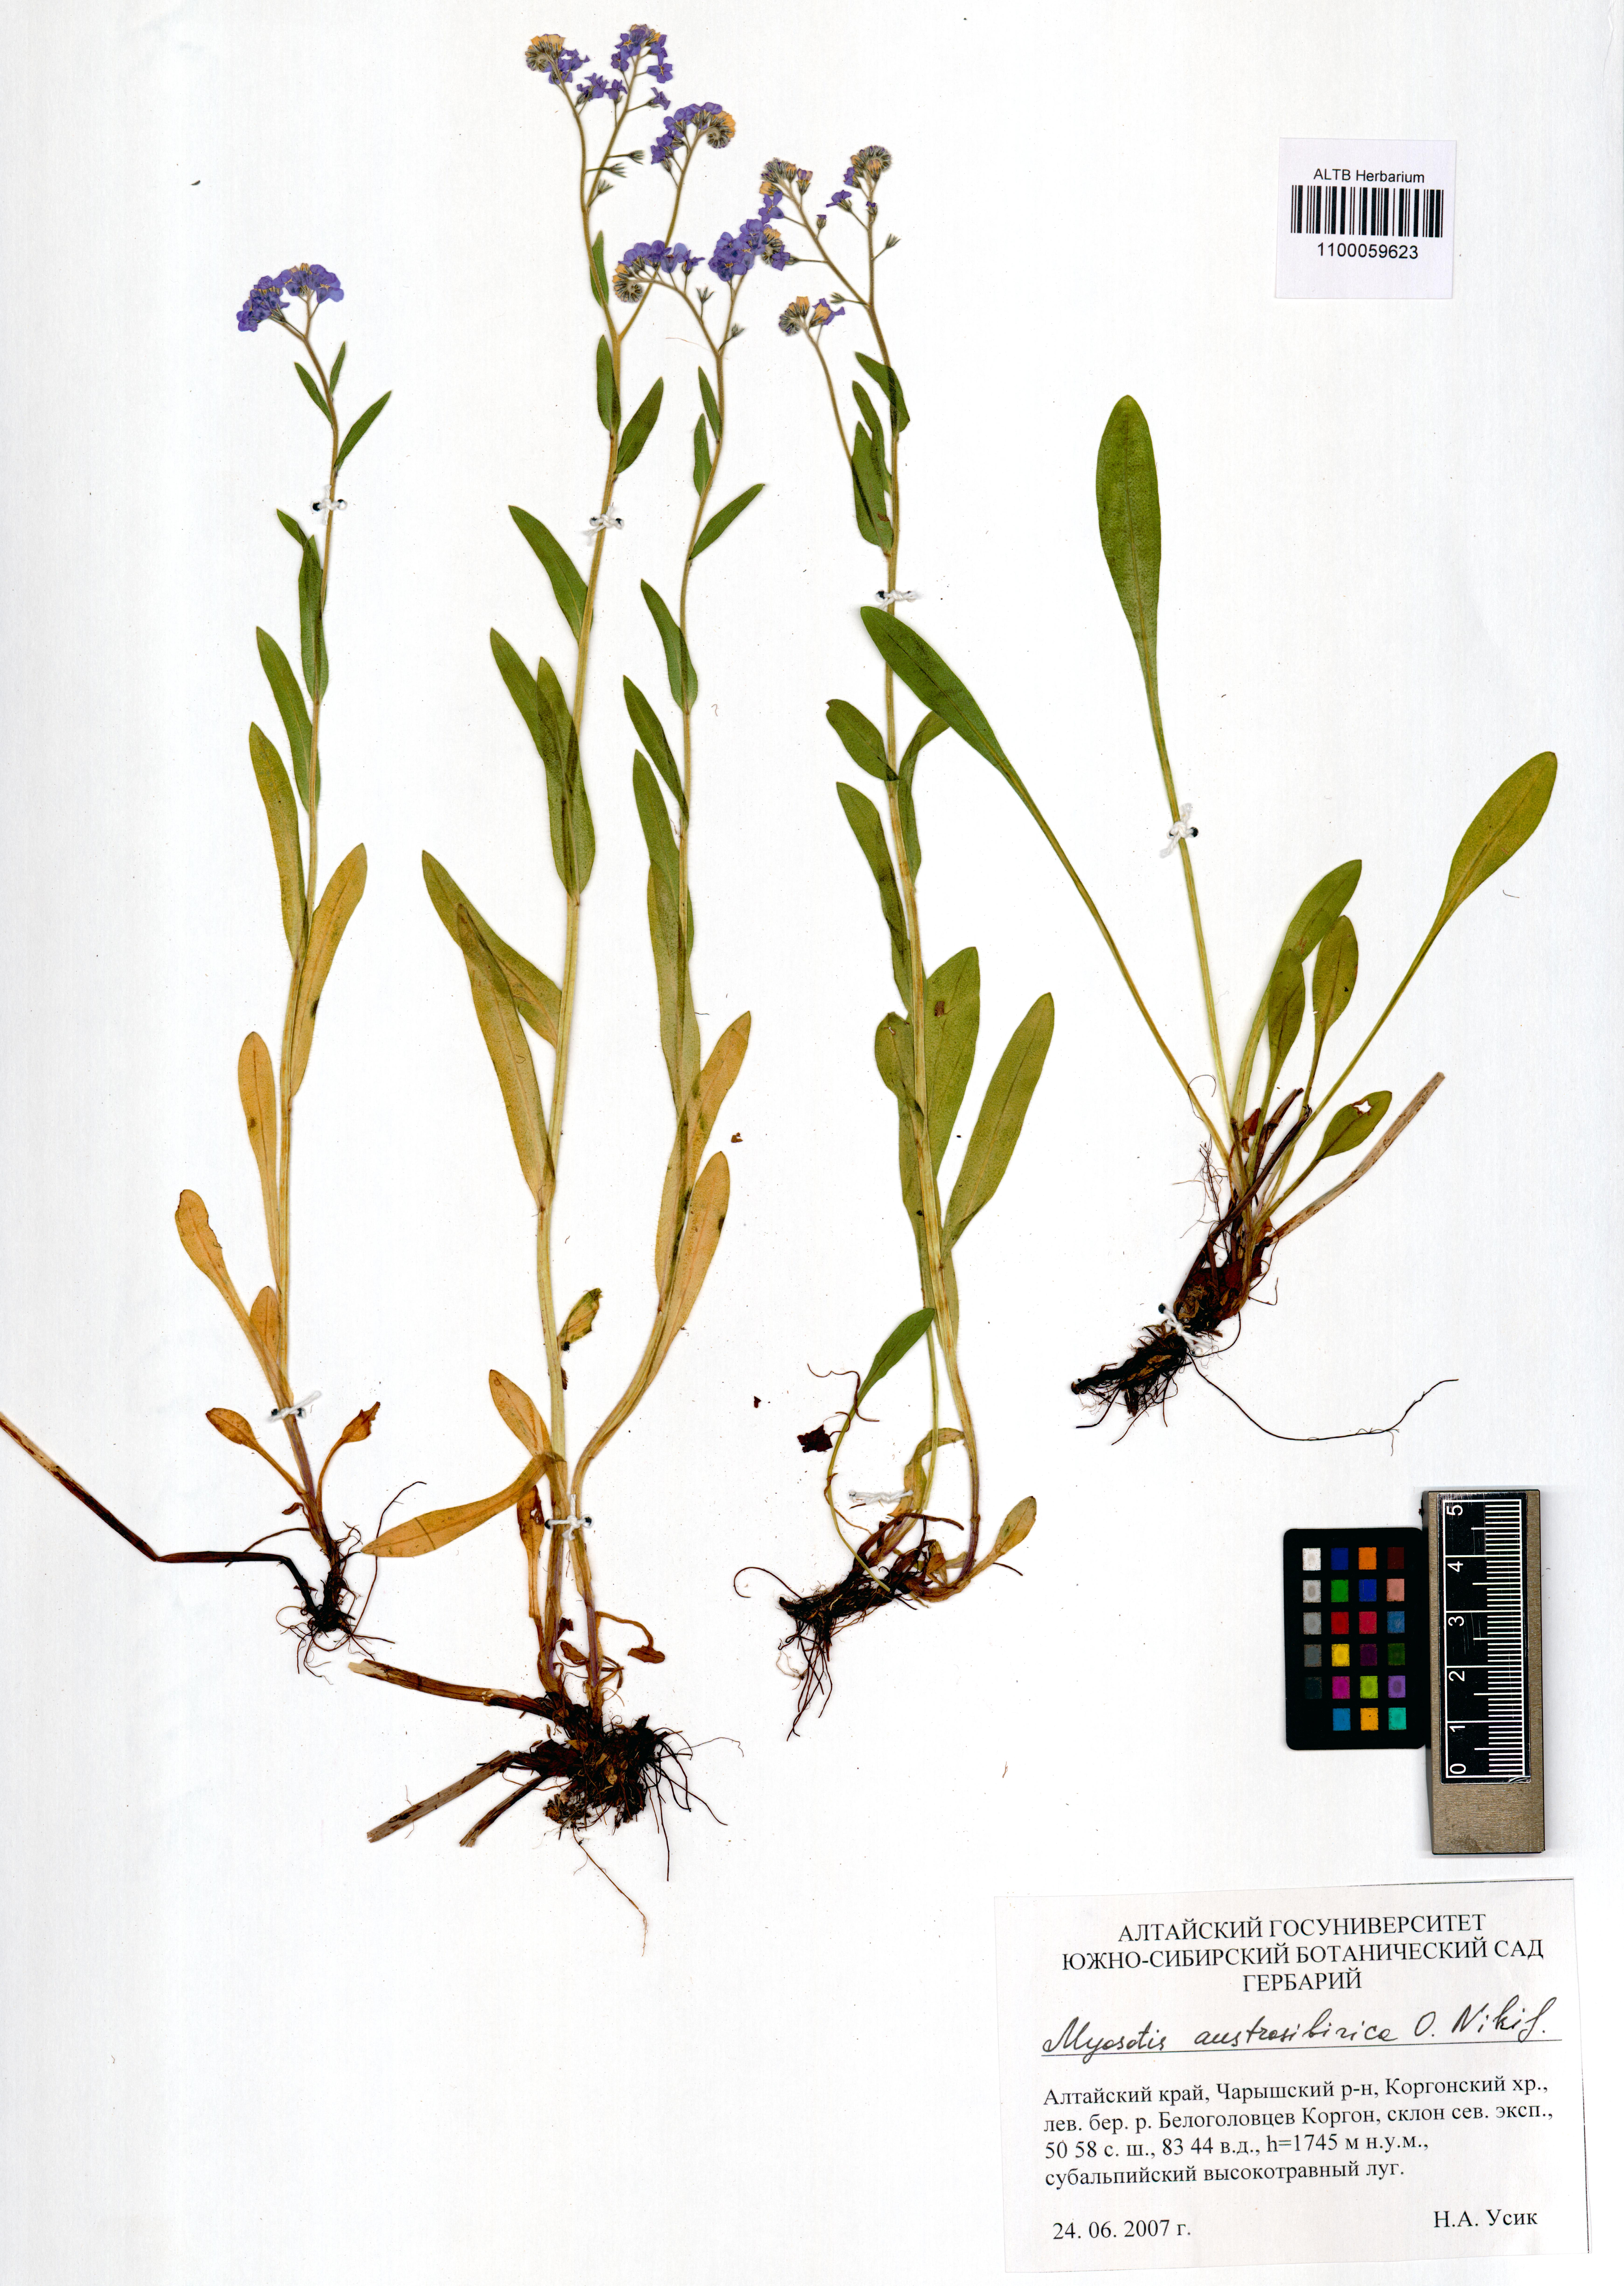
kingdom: Plantae
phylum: Tracheophyta
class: Magnoliopsida
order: Boraginales
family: Boraginaceae
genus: Myosotis
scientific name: Myosotis austrosibirica
